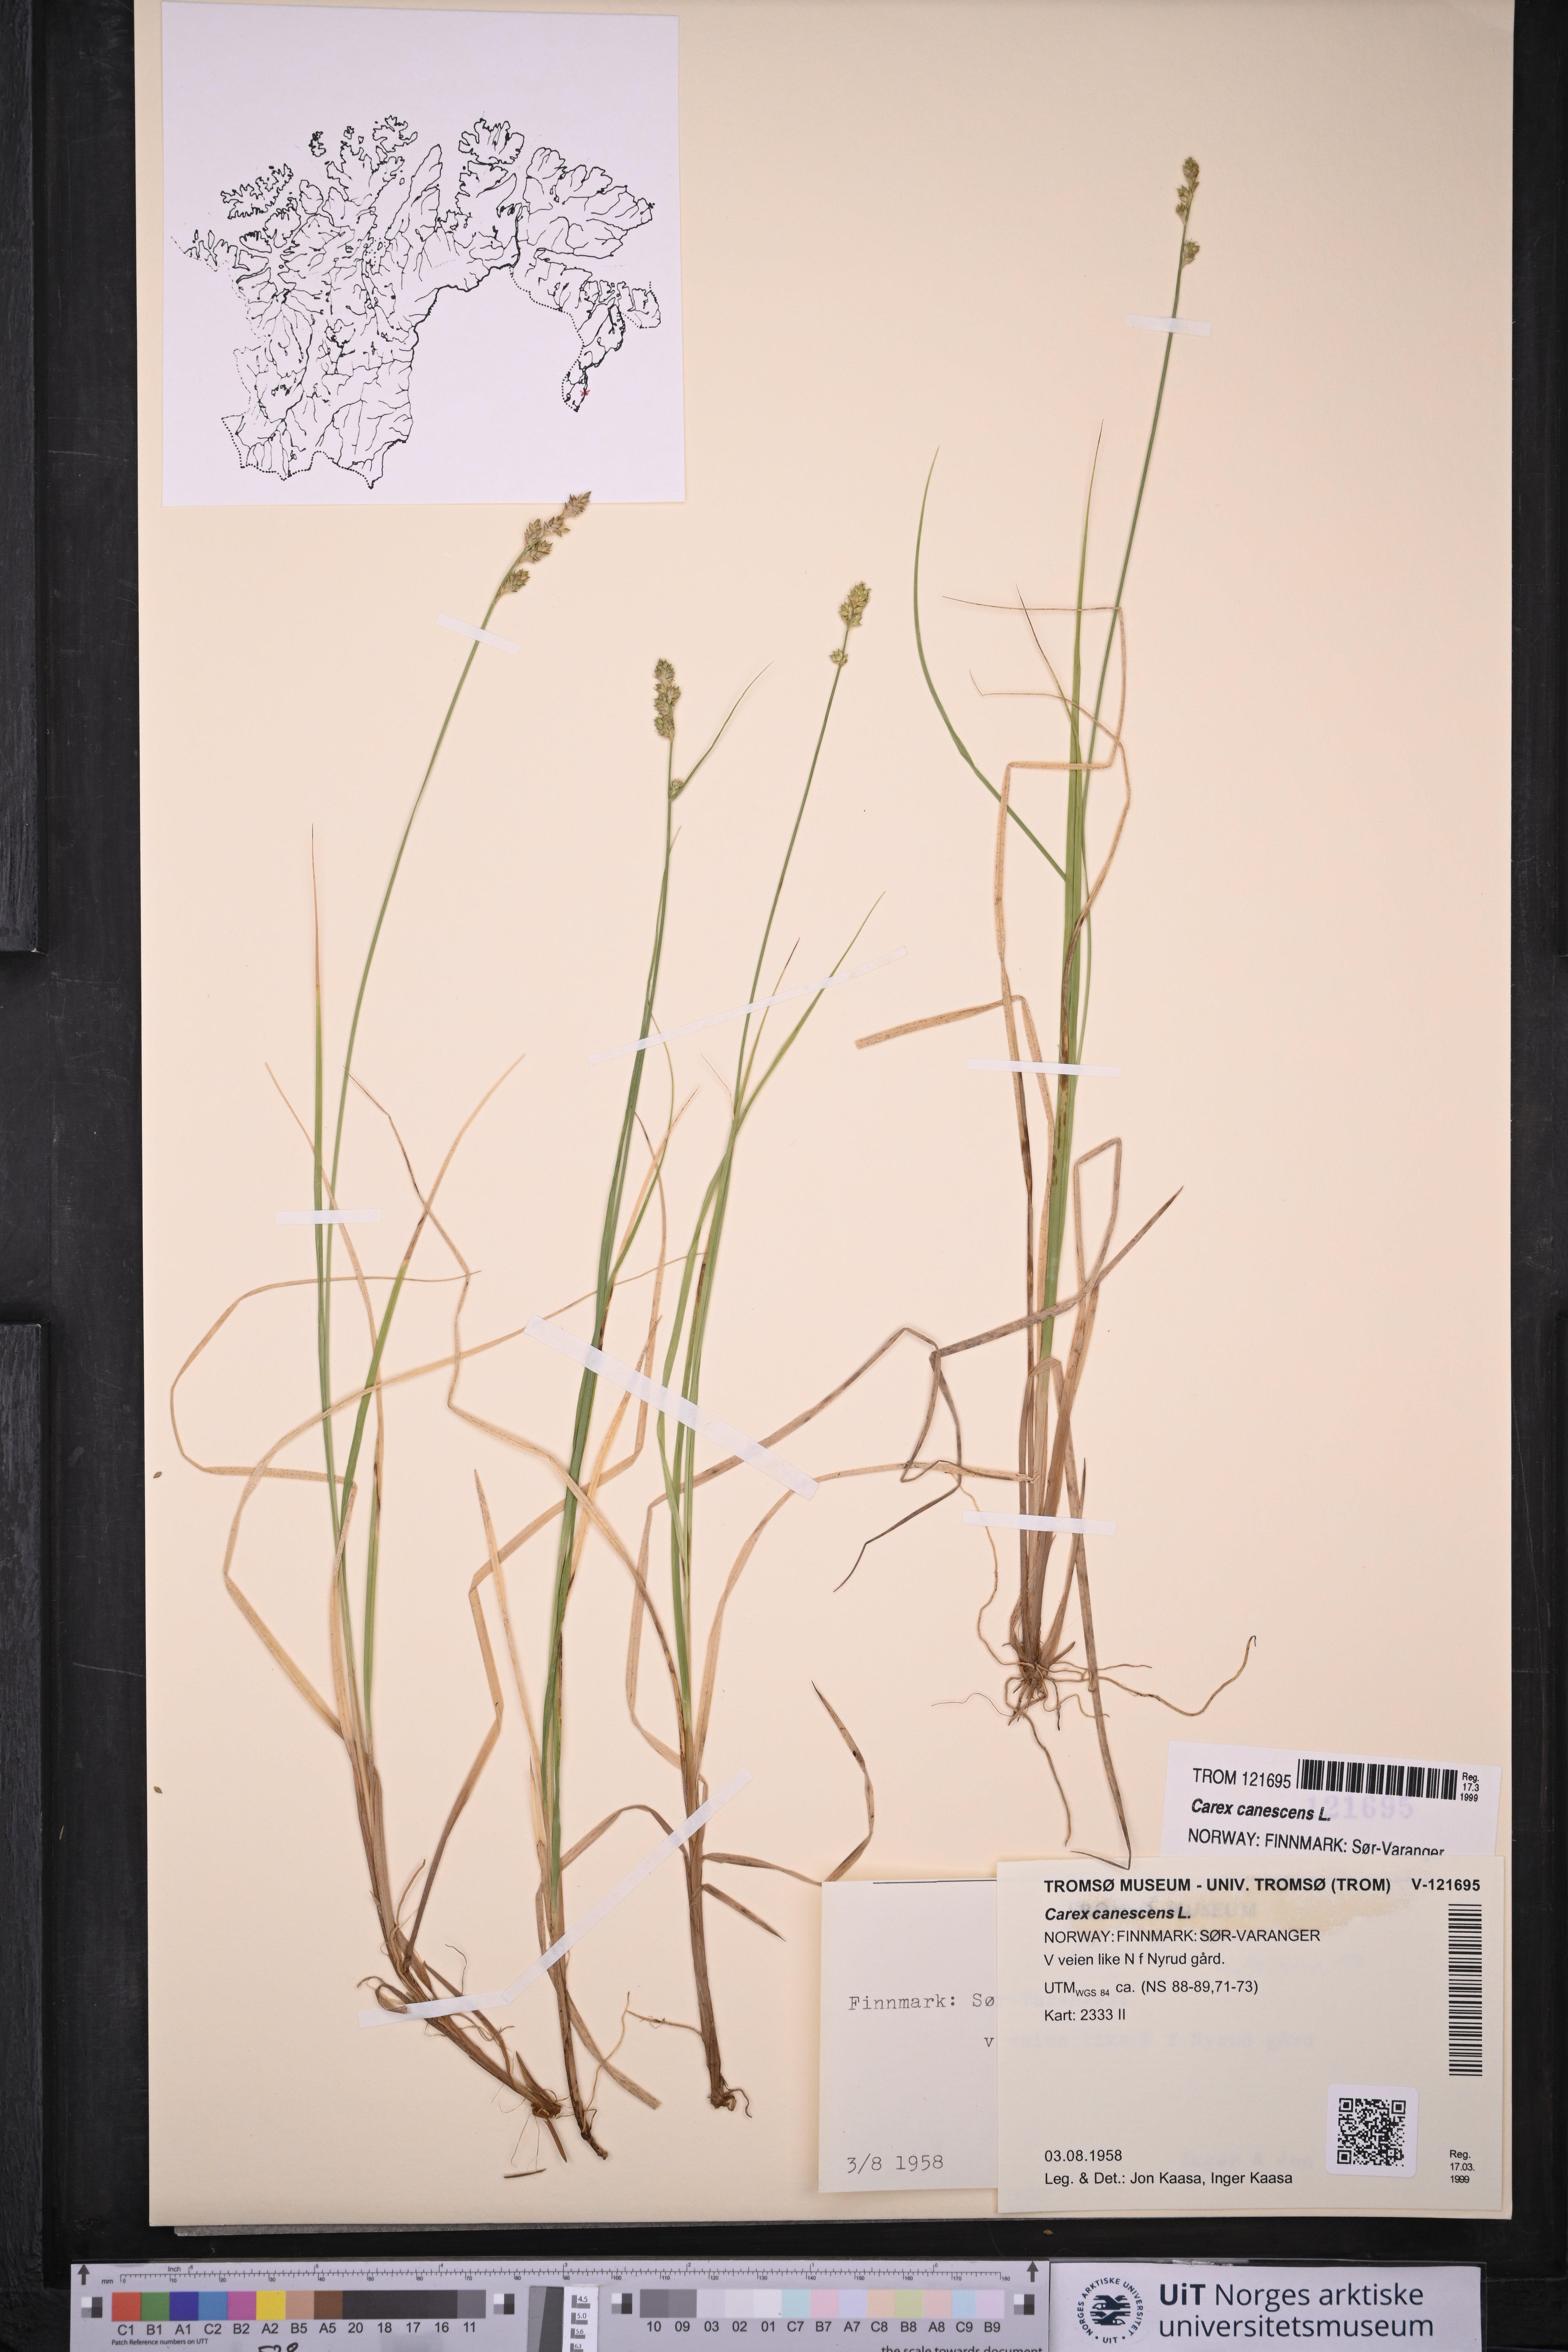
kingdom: Plantae
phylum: Tracheophyta
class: Liliopsida
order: Poales
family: Cyperaceae
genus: Carex
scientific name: Carex canescens
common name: White sedge
